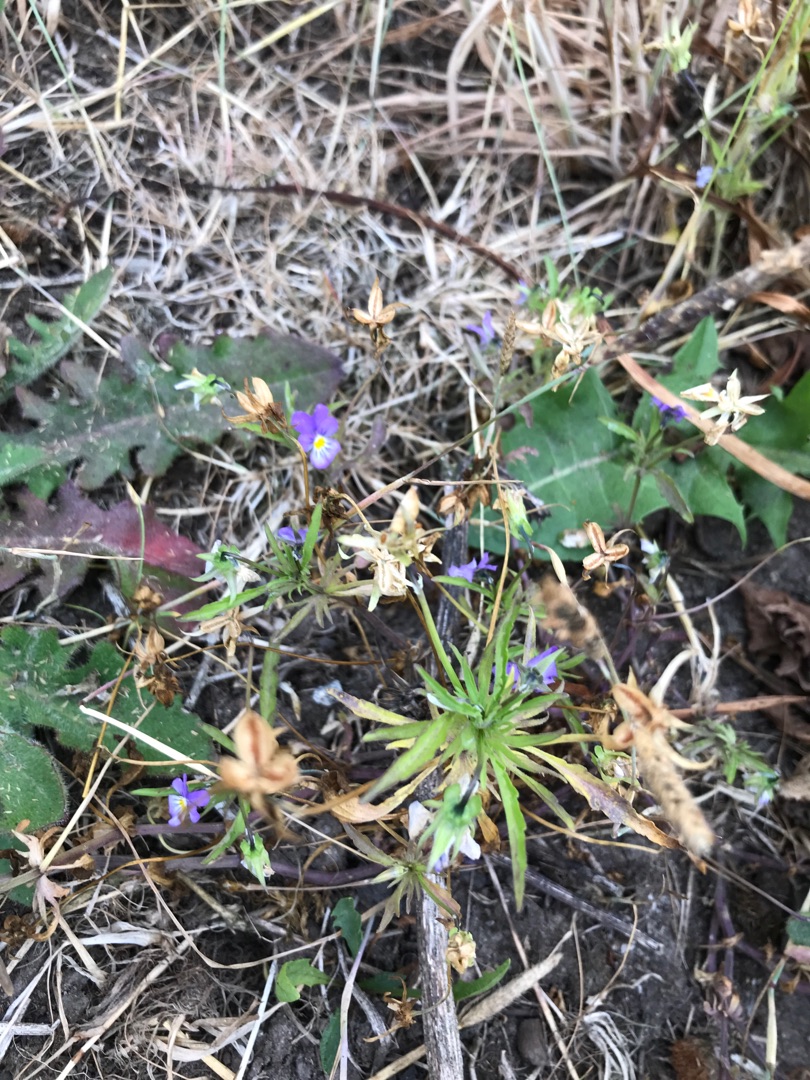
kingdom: Plantae
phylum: Tracheophyta
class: Magnoliopsida
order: Malpighiales
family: Violaceae
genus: Viola
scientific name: Viola tricolor
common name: Stedmoderblomst
